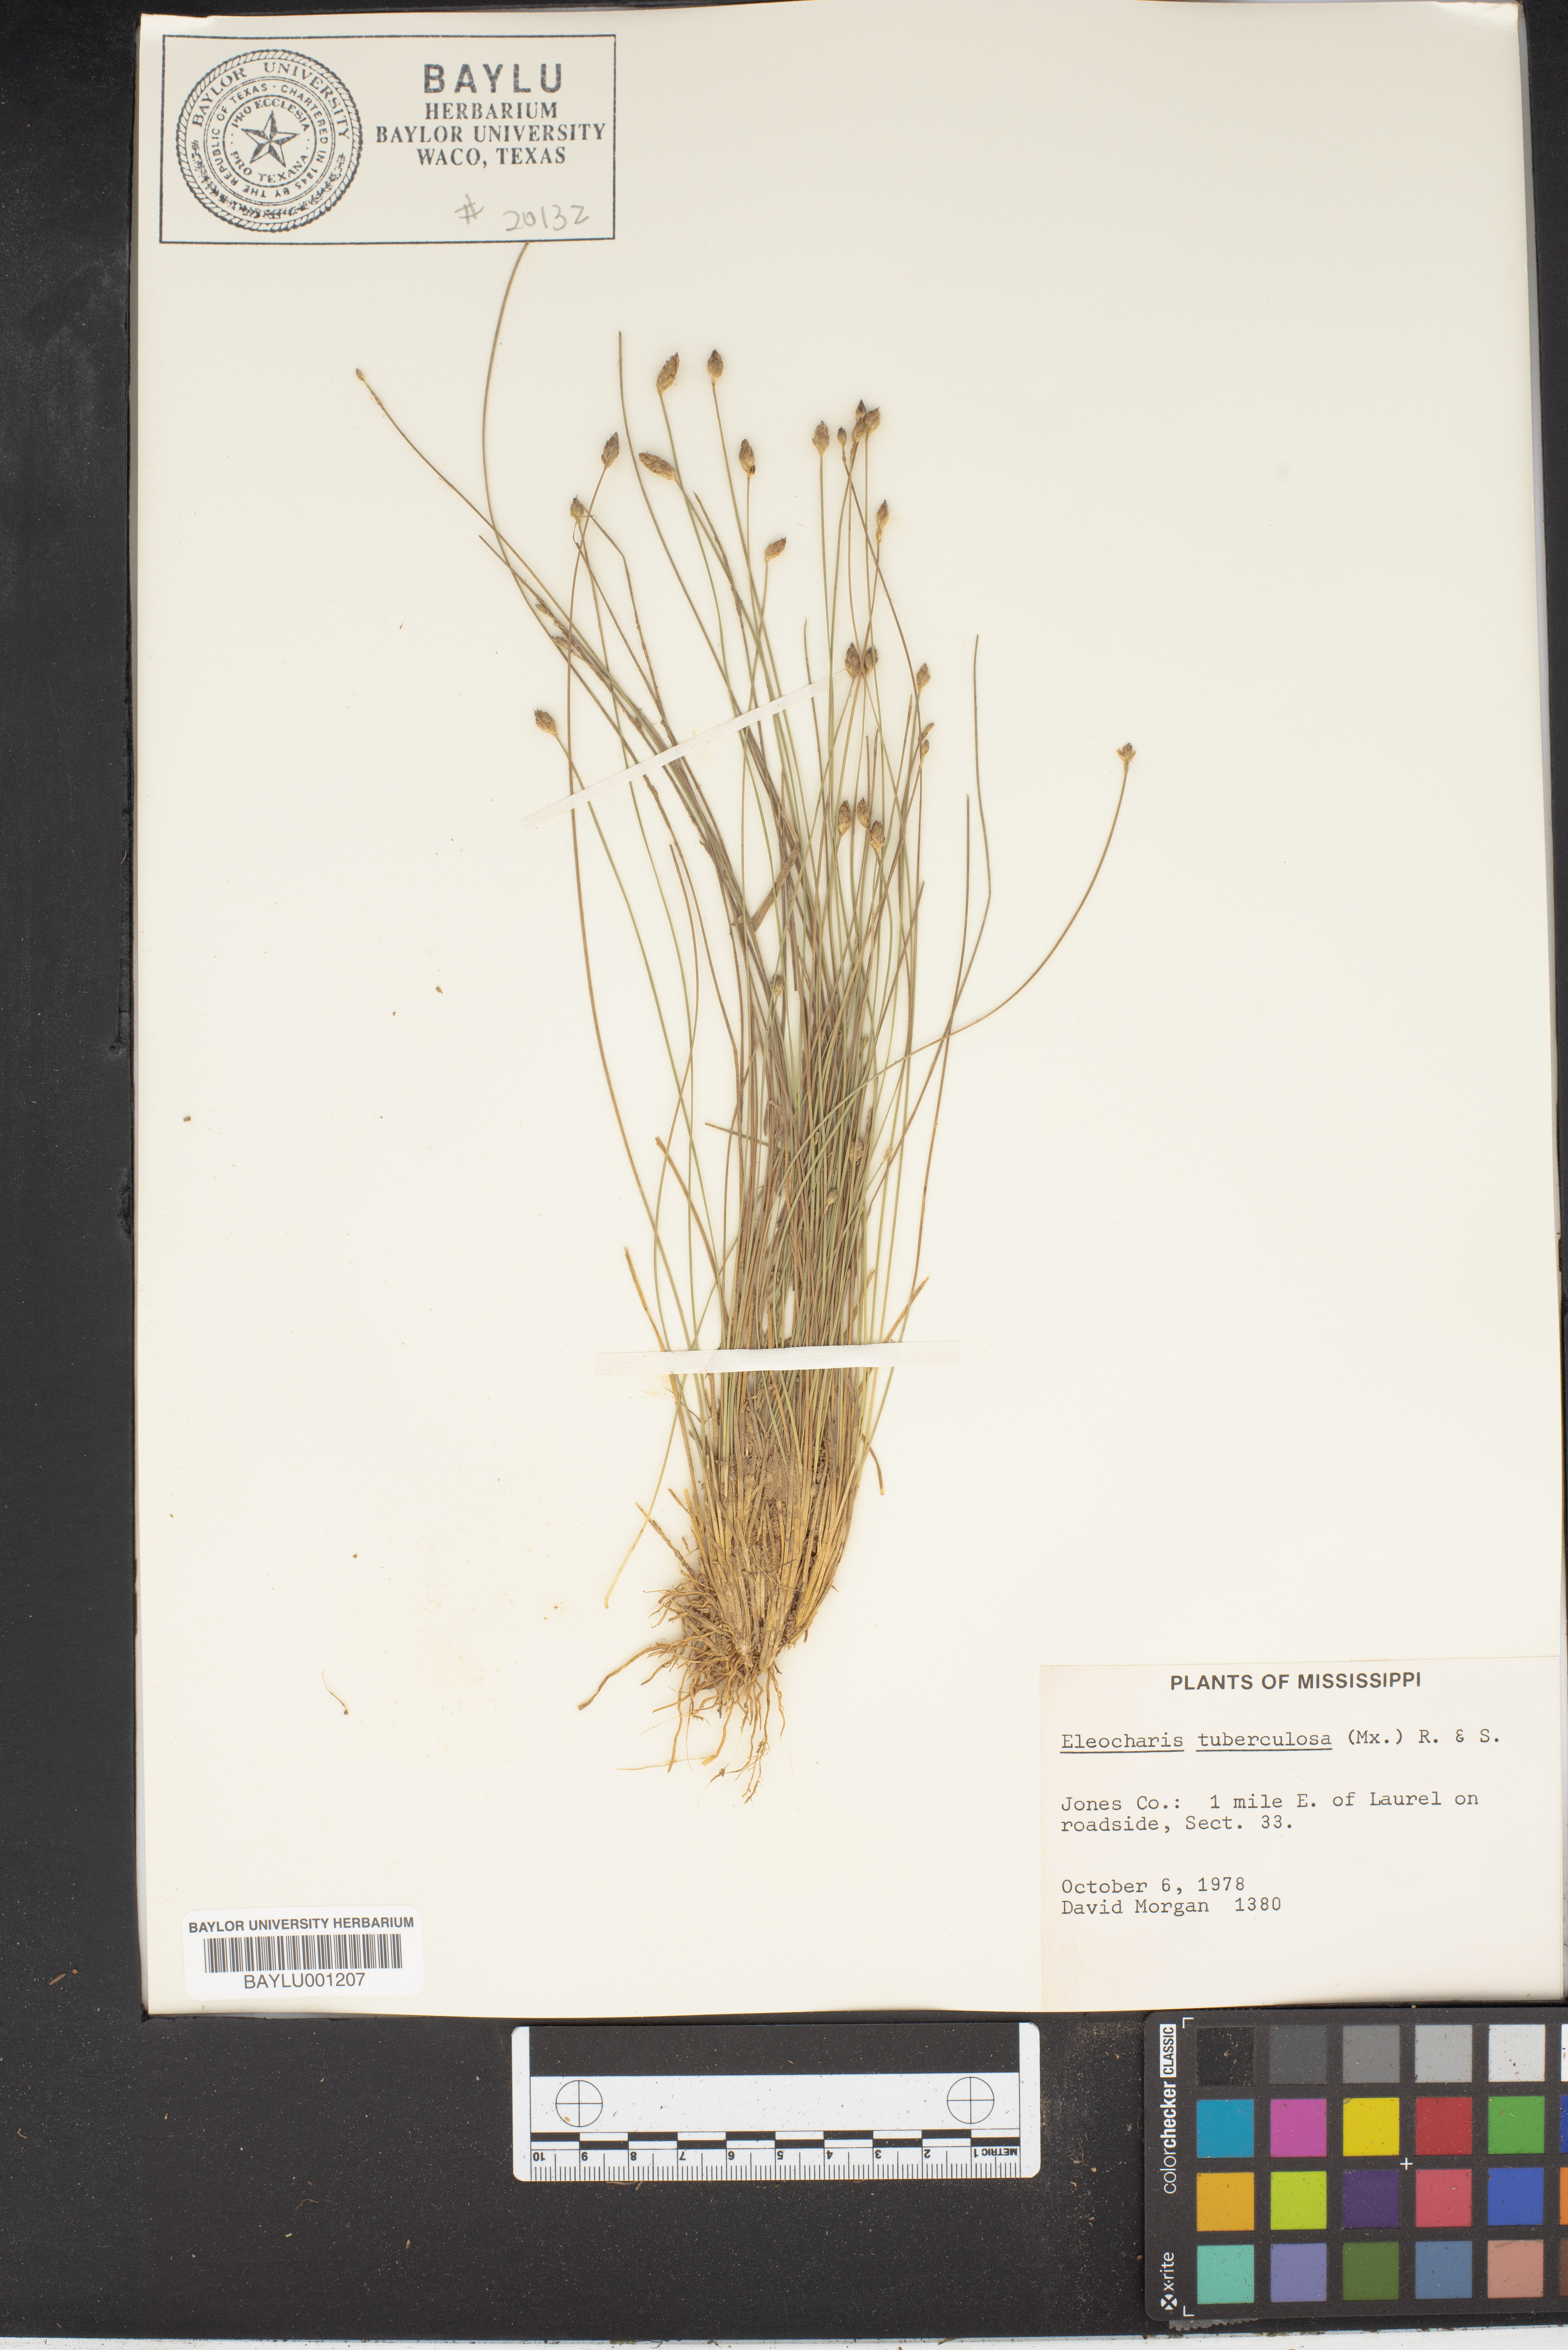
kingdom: Plantae
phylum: Tracheophyta
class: Liliopsida
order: Poales
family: Cyperaceae
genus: Eleocharis
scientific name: Eleocharis tuberculosa
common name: Cone-cup spikerush
